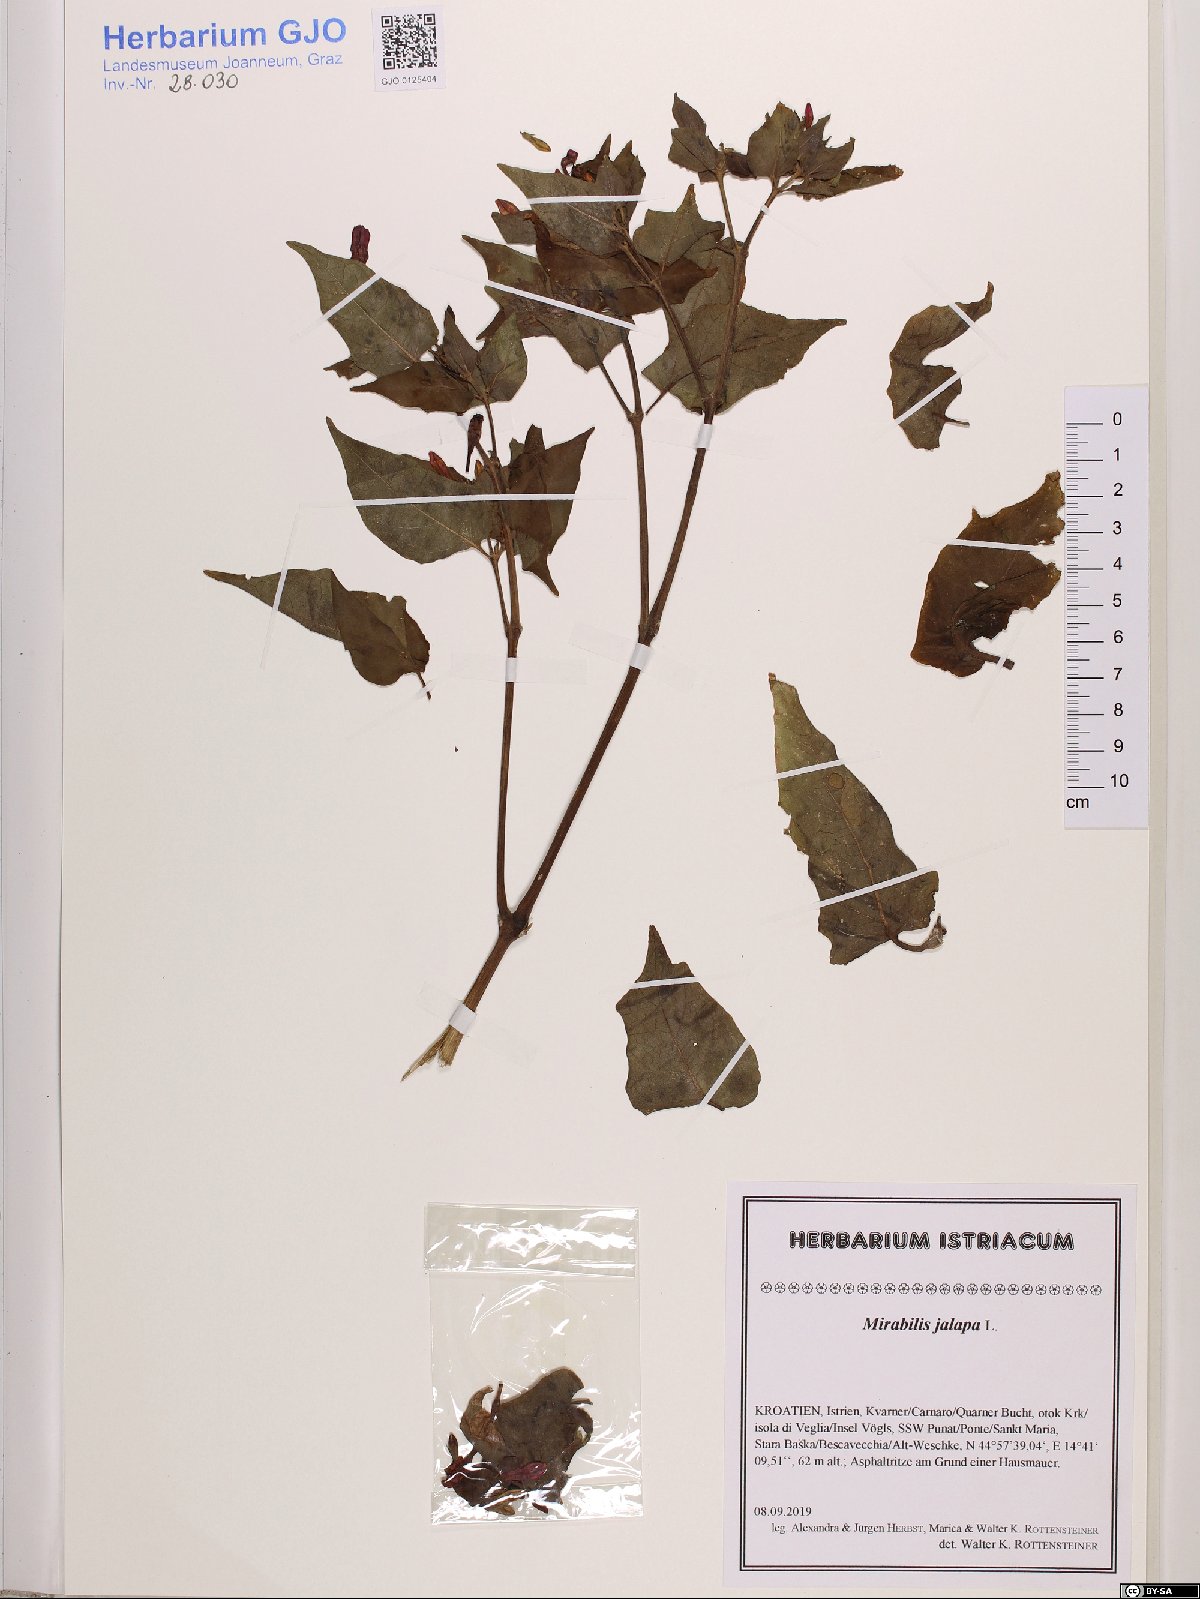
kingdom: Plantae
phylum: Tracheophyta
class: Magnoliopsida
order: Caryophyllales
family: Nyctaginaceae
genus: Mirabilis
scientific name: Mirabilis jalapa
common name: Marvel-of-peru
